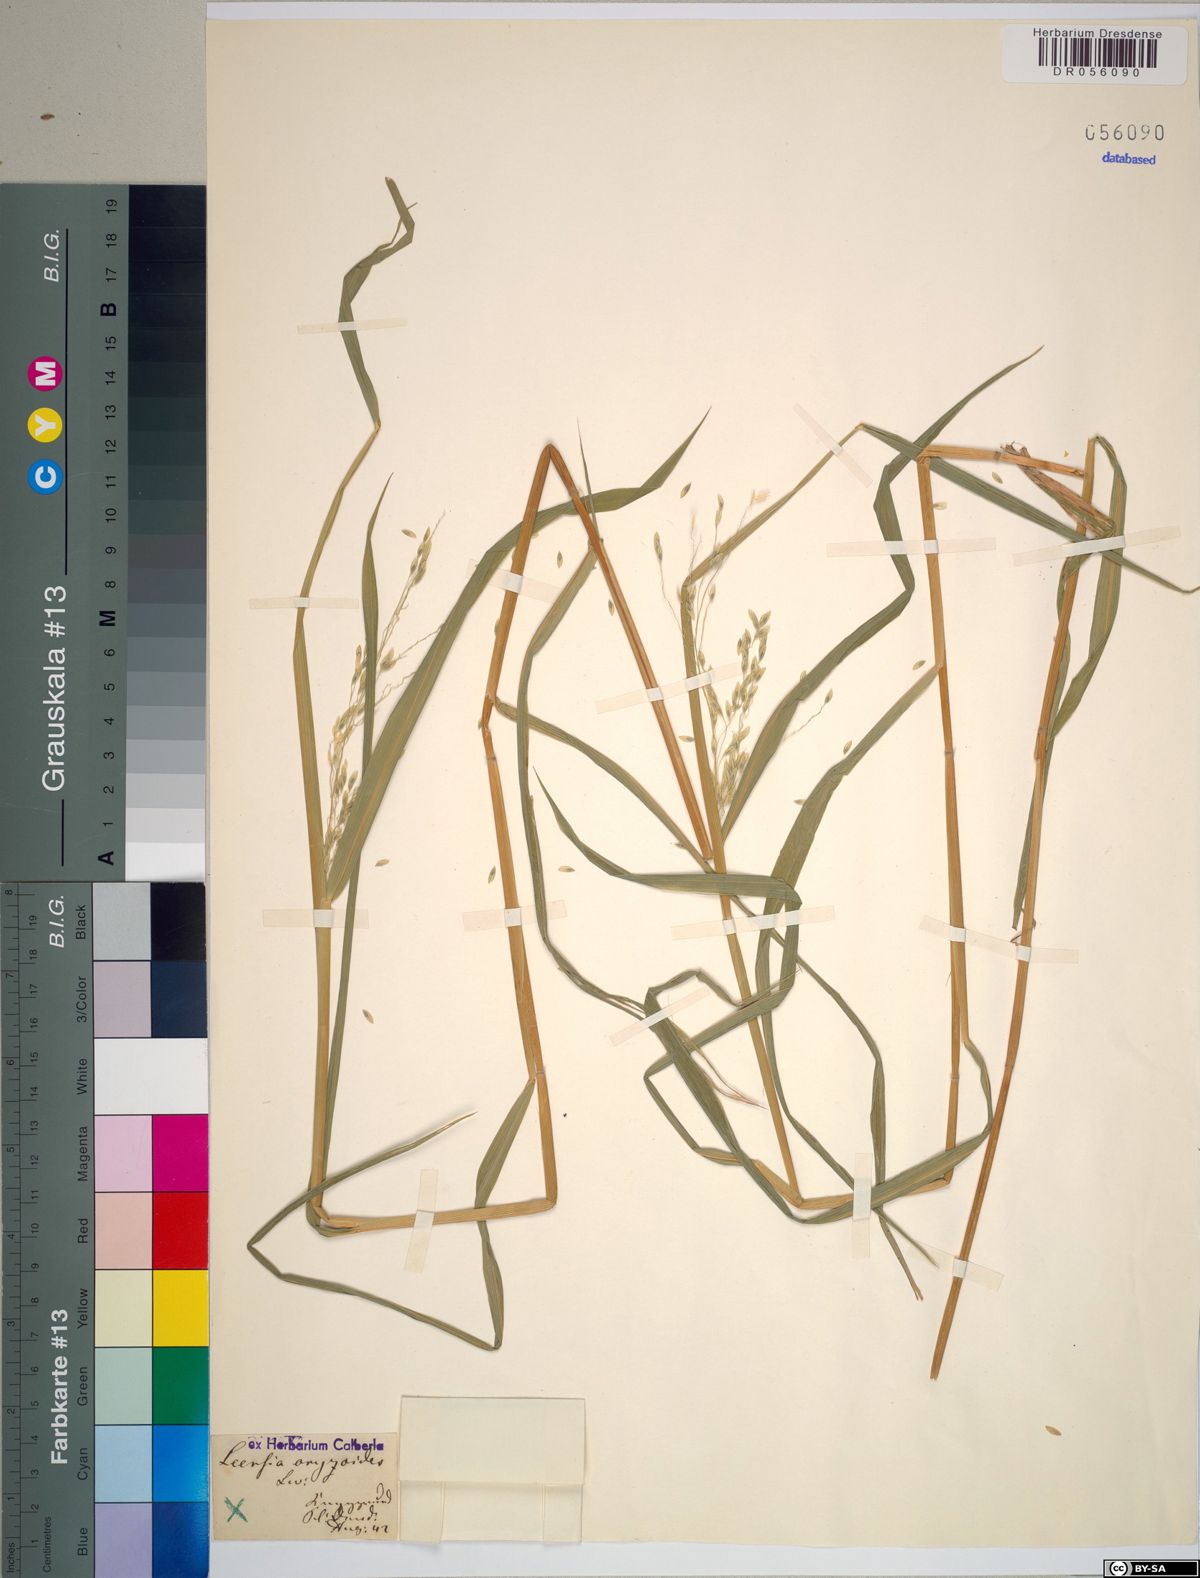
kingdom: Plantae
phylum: Tracheophyta
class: Liliopsida
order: Poales
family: Poaceae
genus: Leersia
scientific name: Leersia oryzoides
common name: Cut-grass
